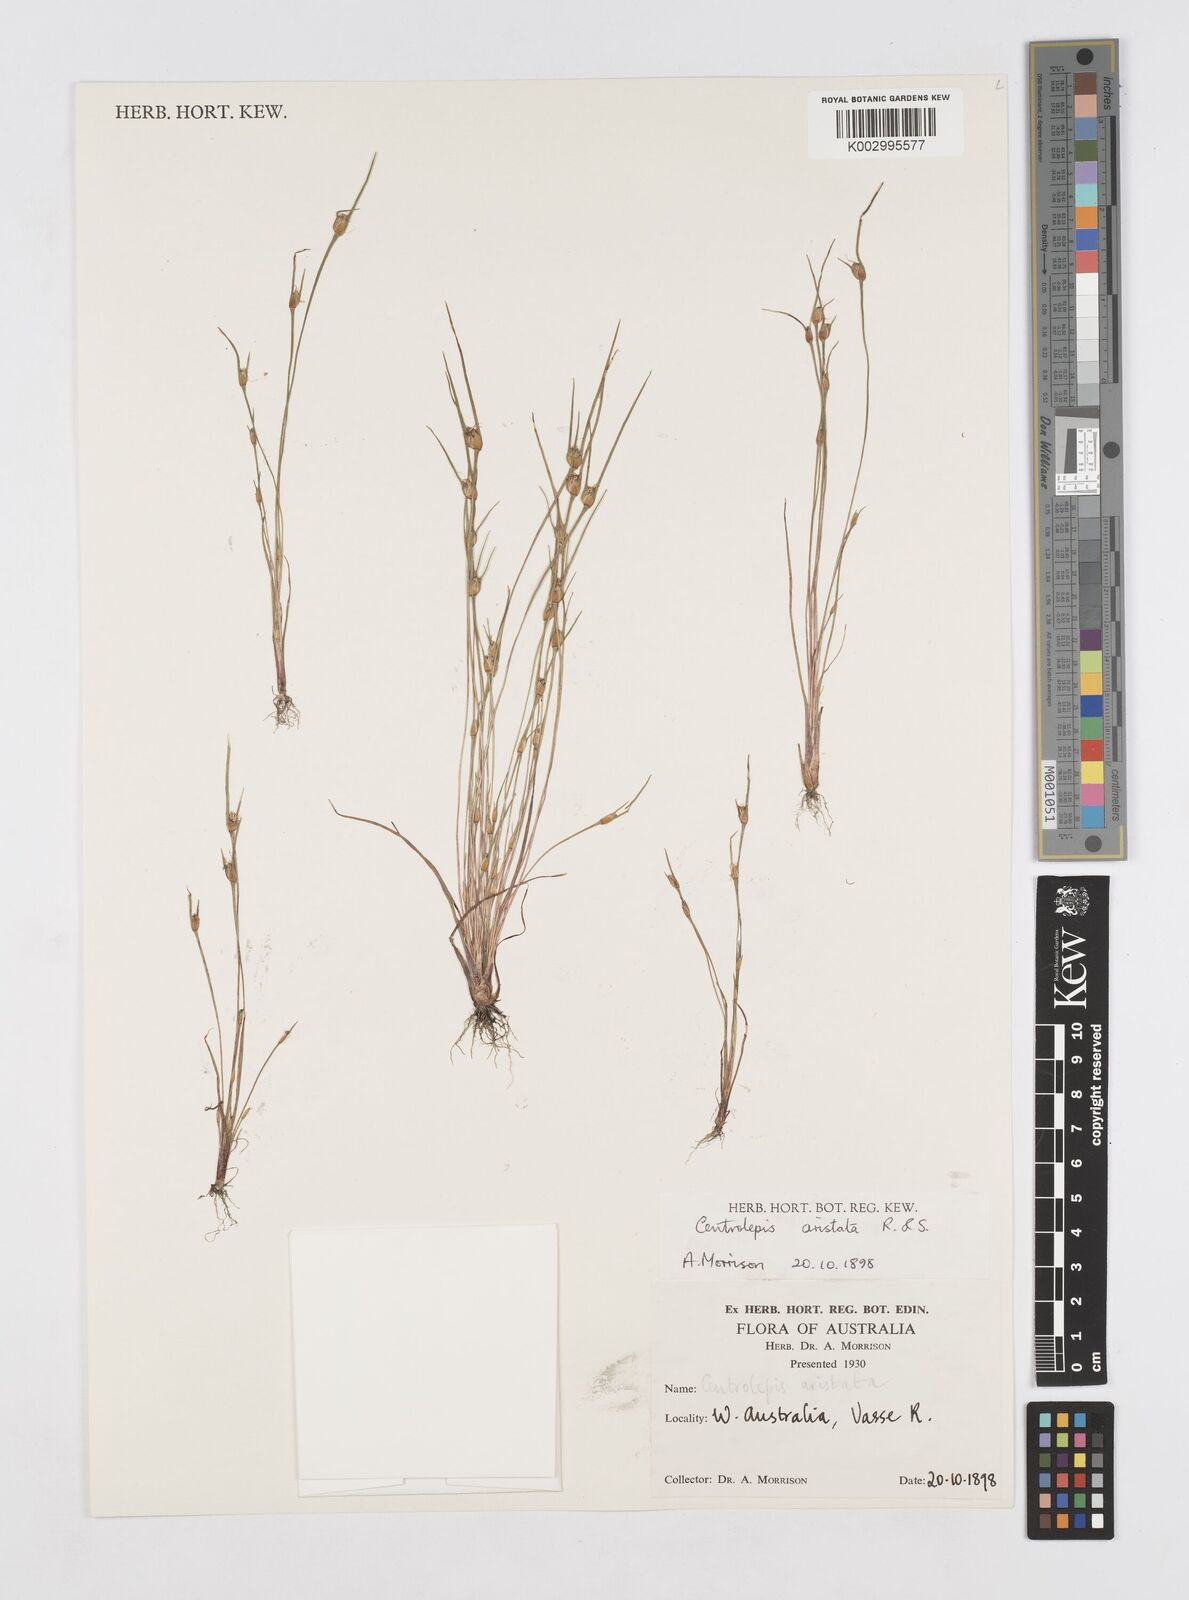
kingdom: Plantae
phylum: Tracheophyta
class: Liliopsida
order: Poales
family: Restionaceae
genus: Centrolepis
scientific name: Centrolepis aristata
